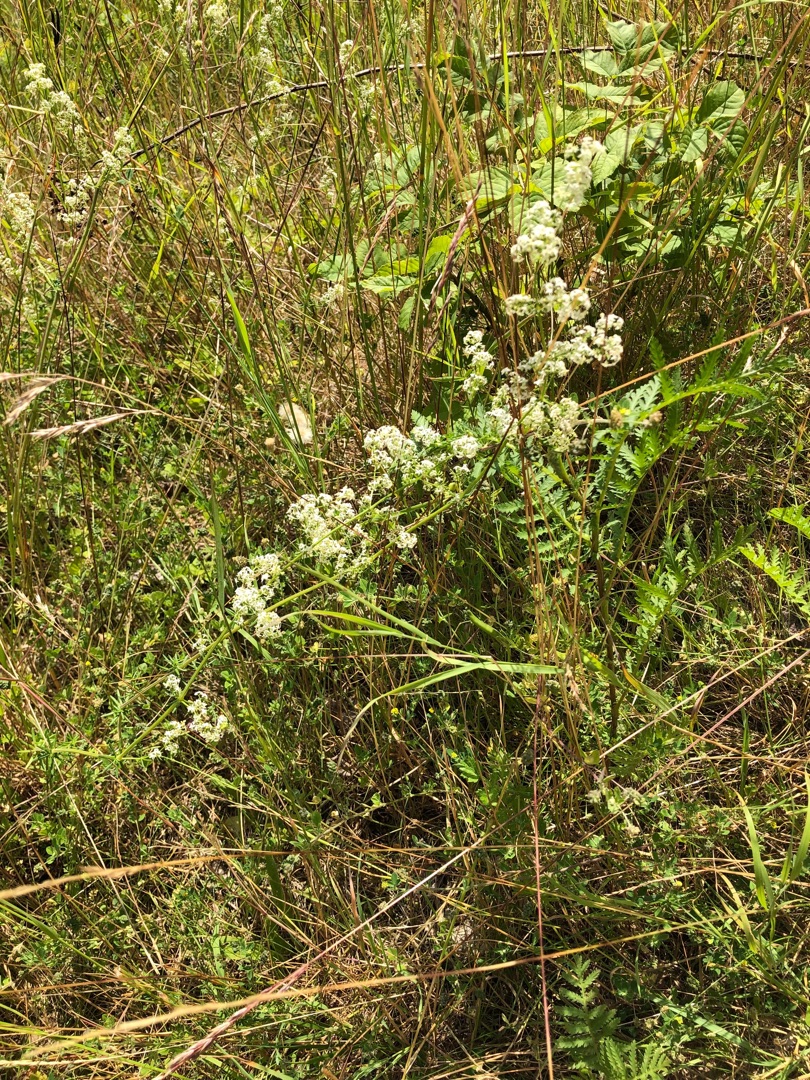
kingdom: Plantae
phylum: Tracheophyta
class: Magnoliopsida
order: Gentianales
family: Rubiaceae
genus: Galium
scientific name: Galium mollugo
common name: Hvid snerre
